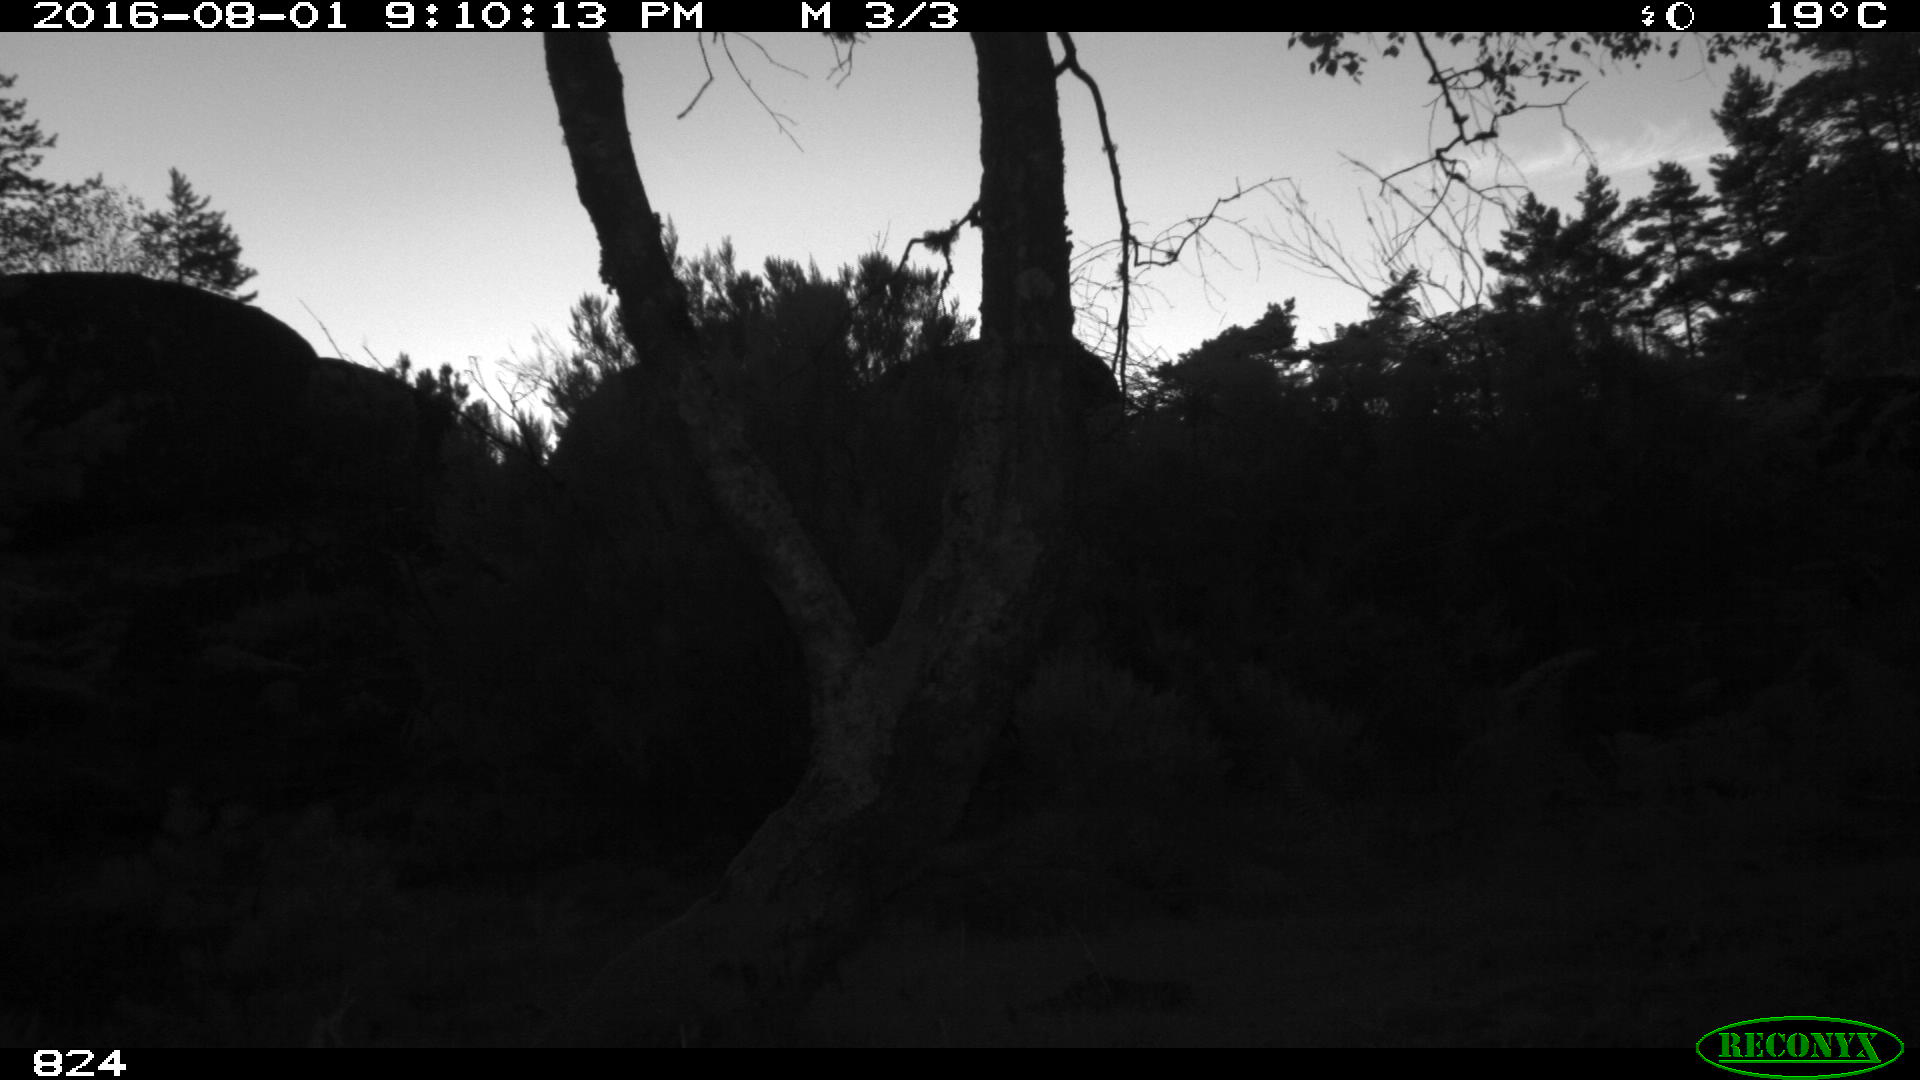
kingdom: Animalia
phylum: Chordata
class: Mammalia
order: Artiodactyla
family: Bovidae
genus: Bos
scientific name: Bos taurus
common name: Domesticated cattle
